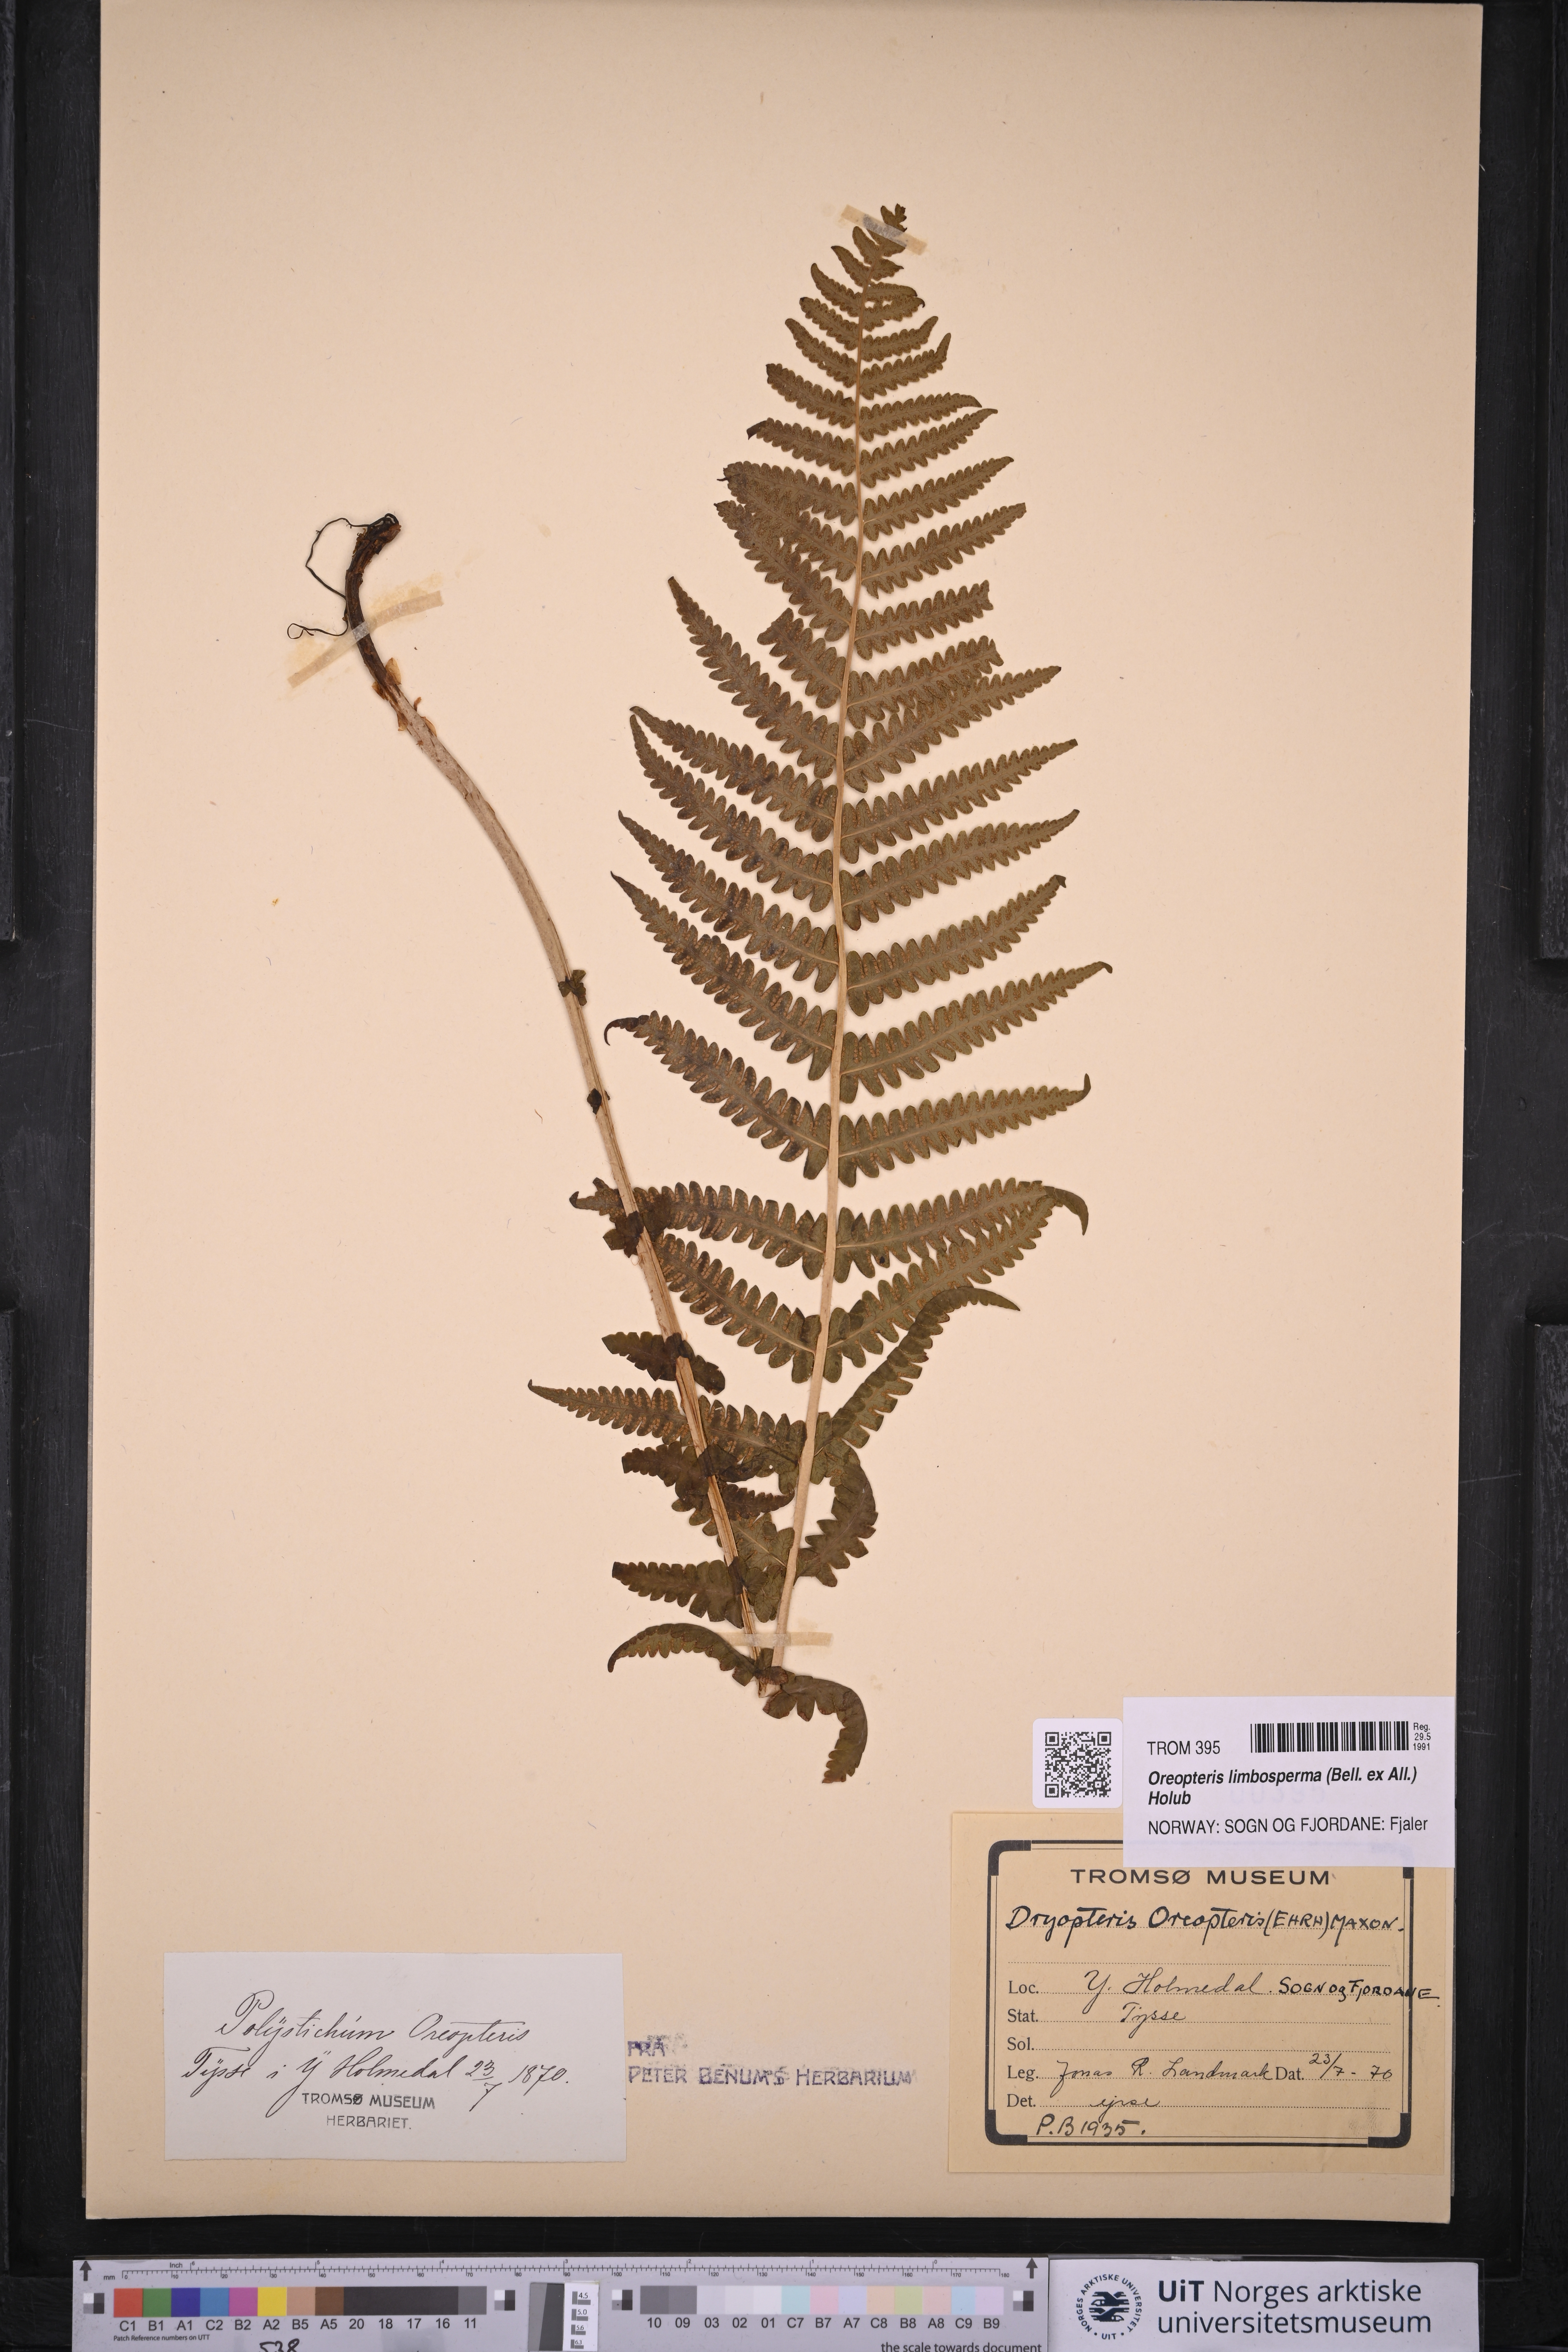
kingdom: Plantae
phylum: Tracheophyta
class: Polypodiopsida
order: Polypodiales
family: Thelypteridaceae
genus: Oreopteris
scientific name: Oreopteris limbosperma
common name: Lemon-scented fern
